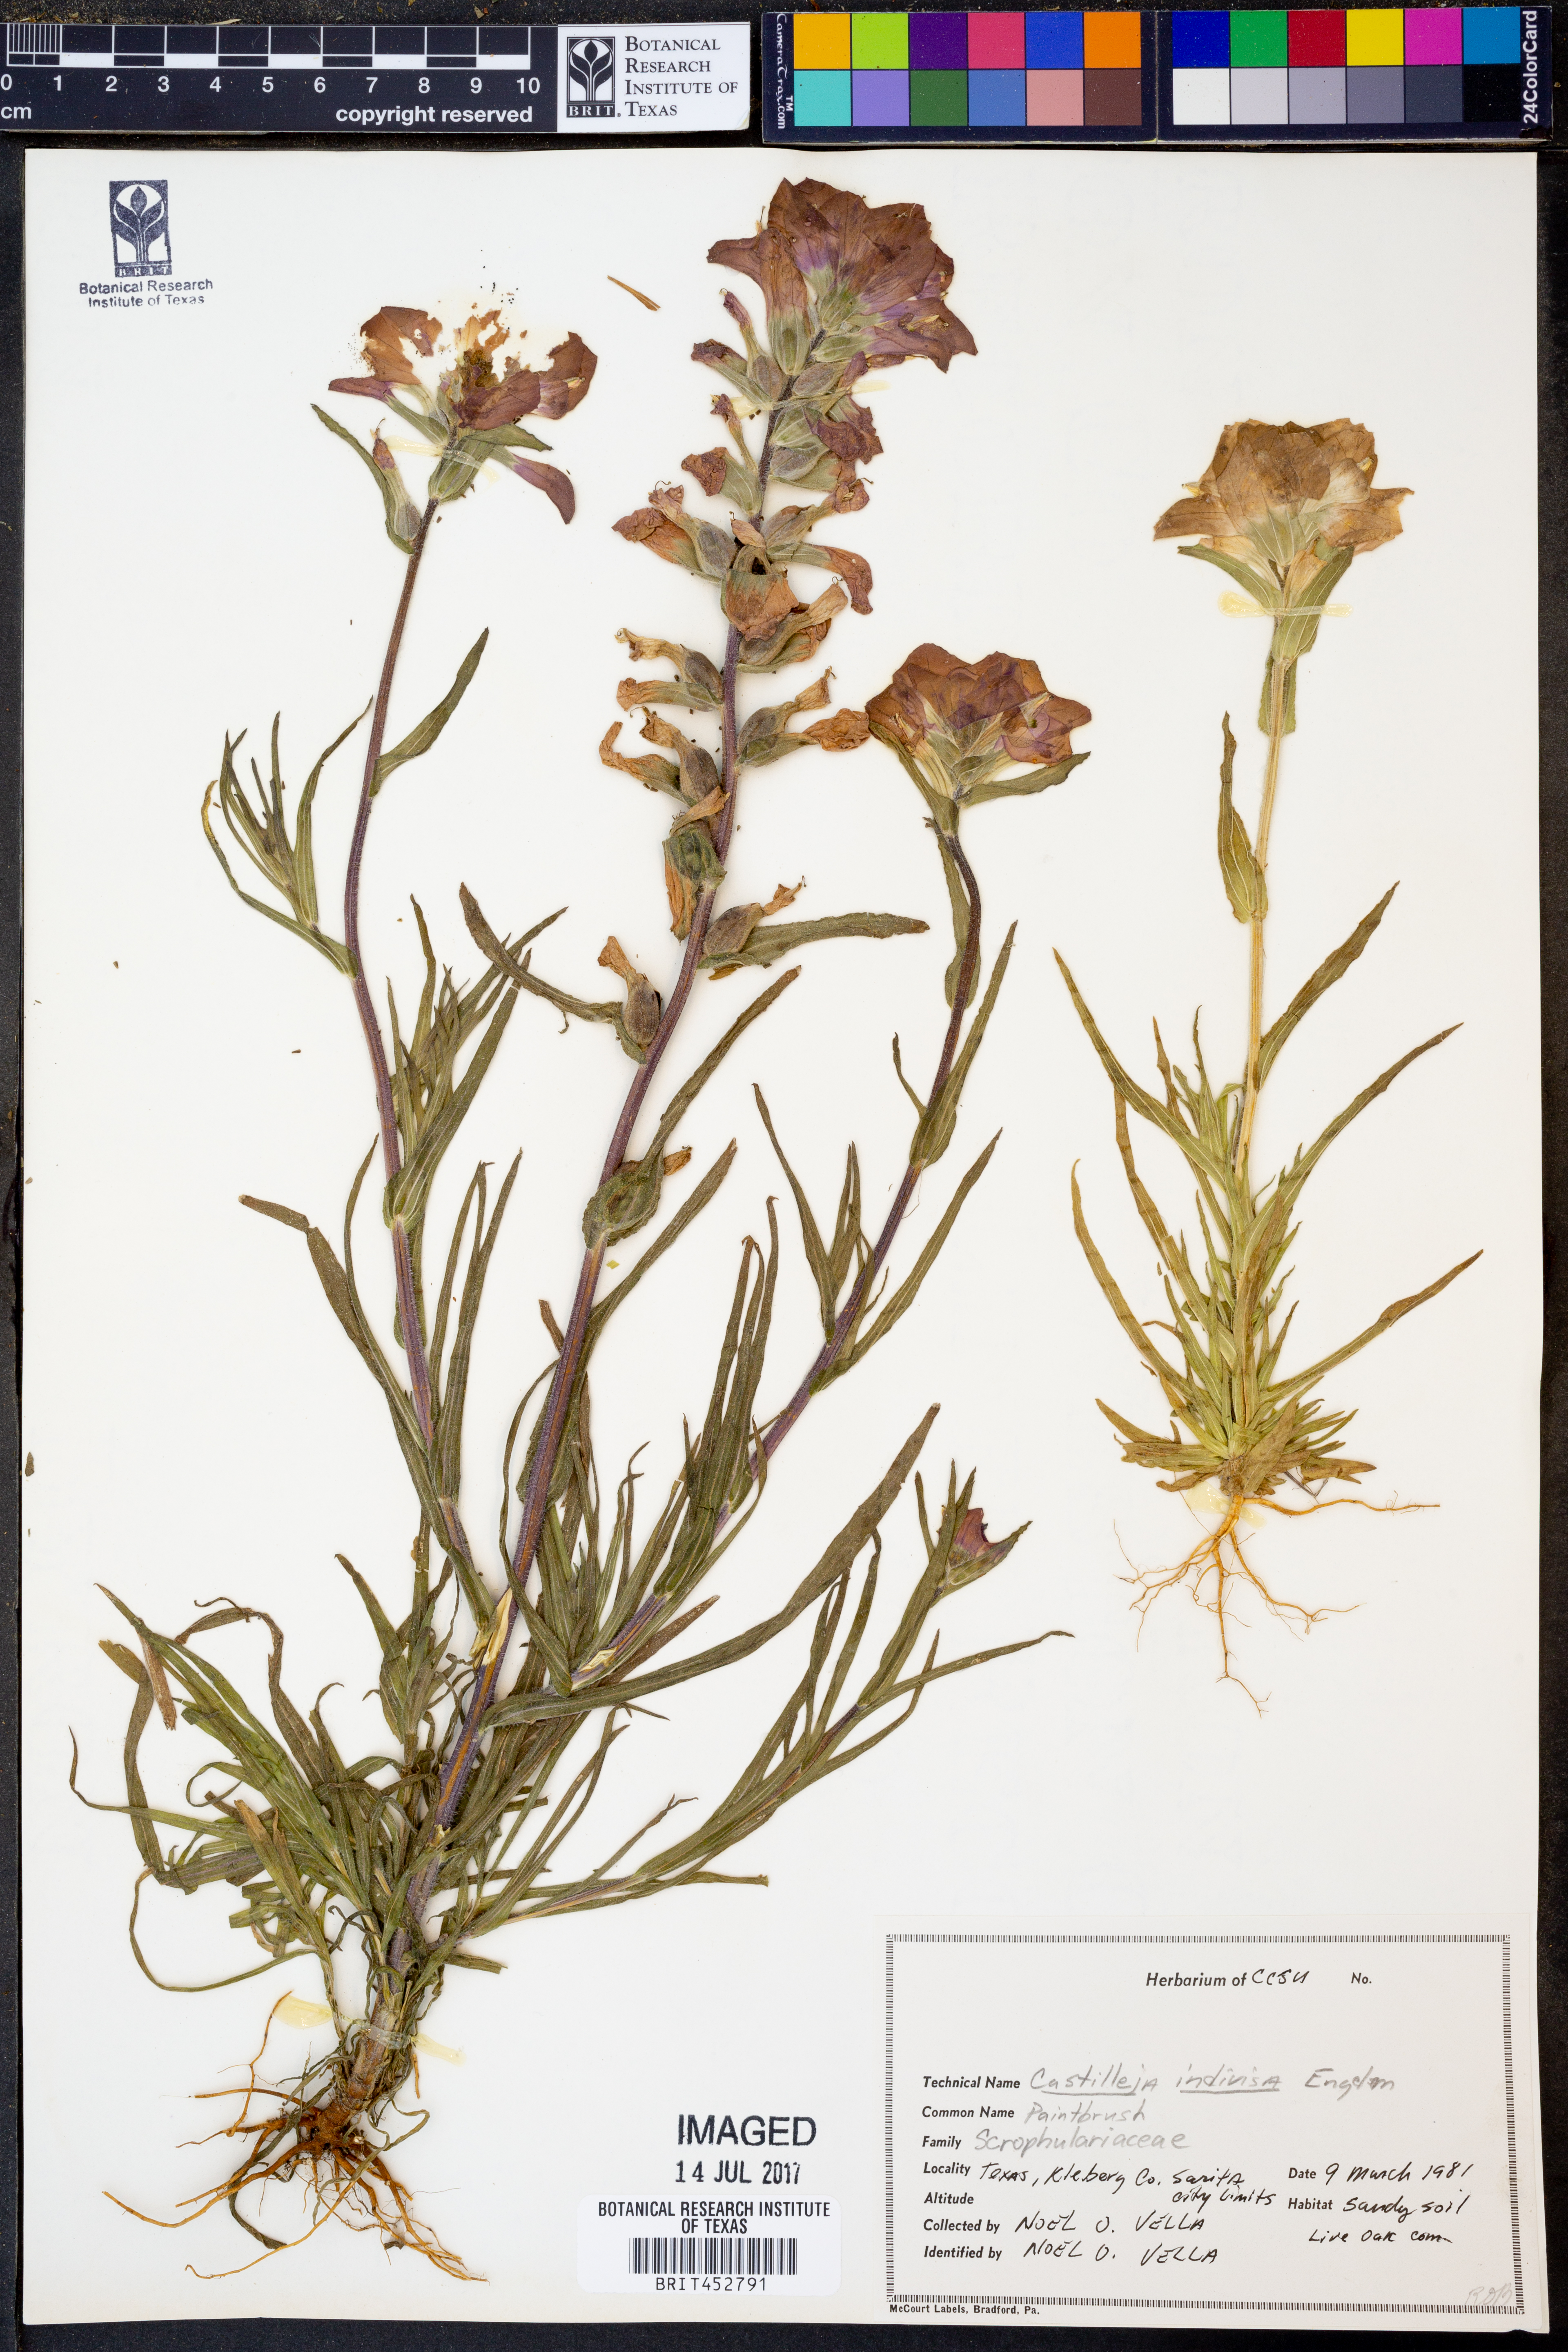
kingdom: Plantae
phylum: Tracheophyta
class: Magnoliopsida
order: Lamiales
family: Orobanchaceae
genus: Castilleja
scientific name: Castilleja indivisa
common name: Texas paintbrush
